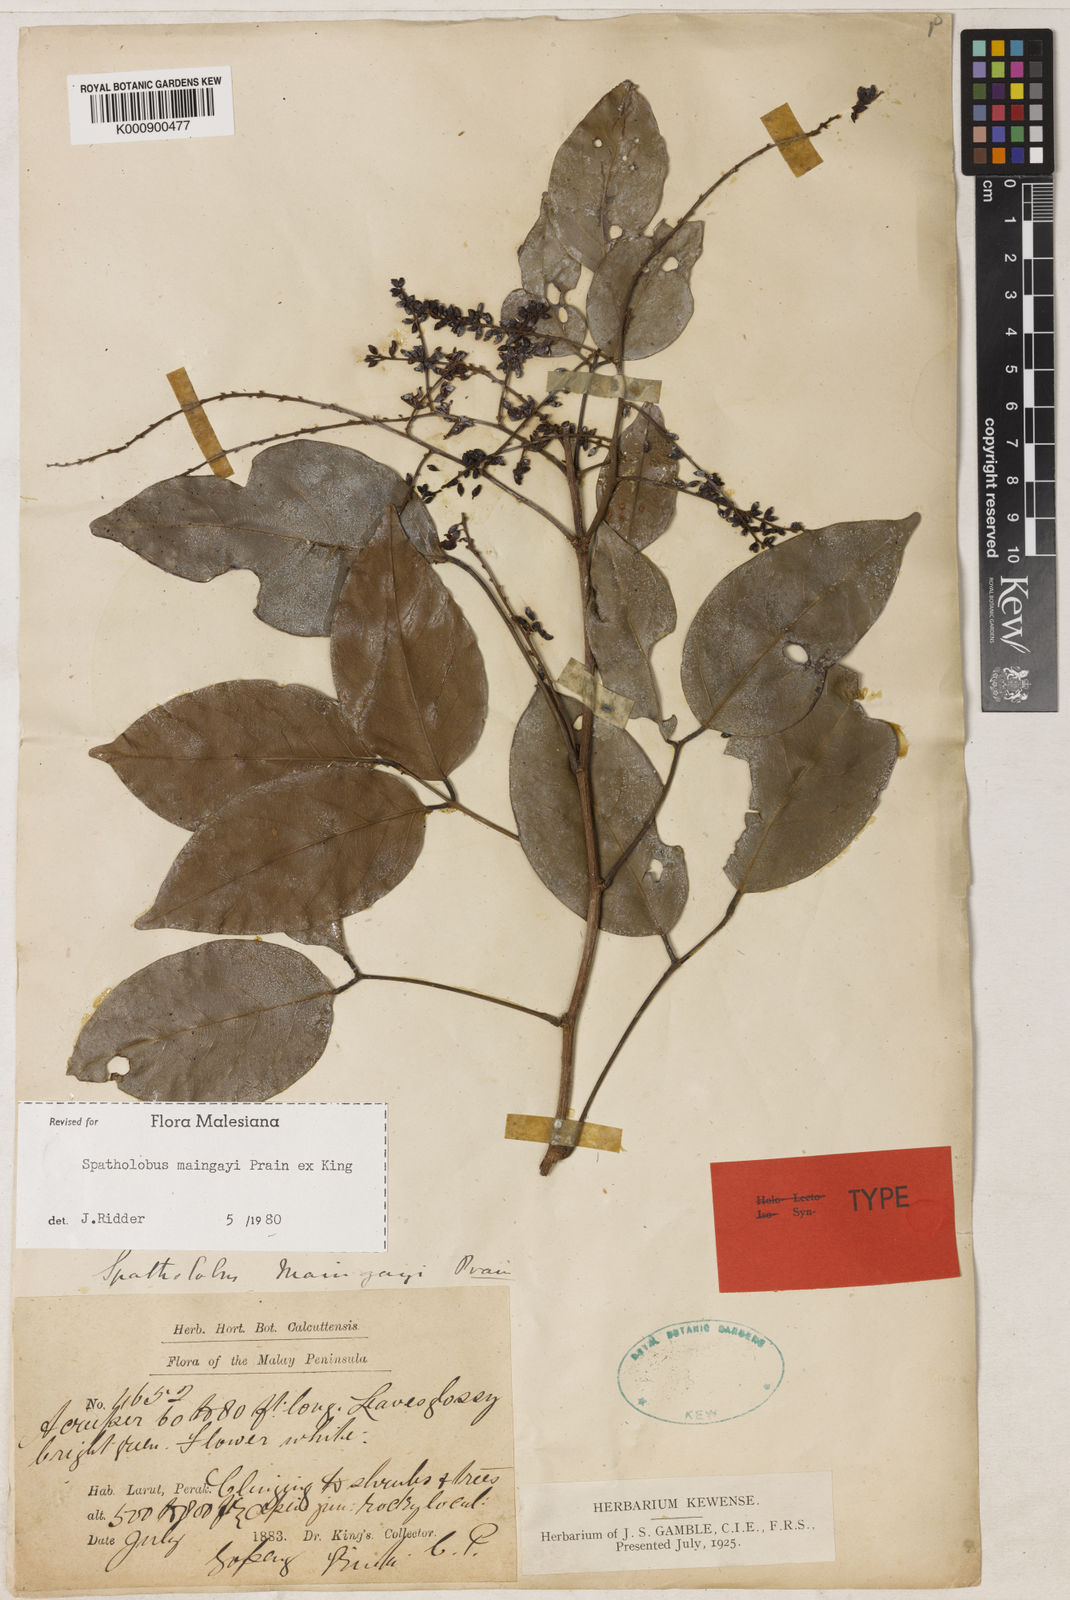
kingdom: Plantae
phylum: Tracheophyta
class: Magnoliopsida
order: Fabales
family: Fabaceae
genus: Spatholobus
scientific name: Spatholobus
